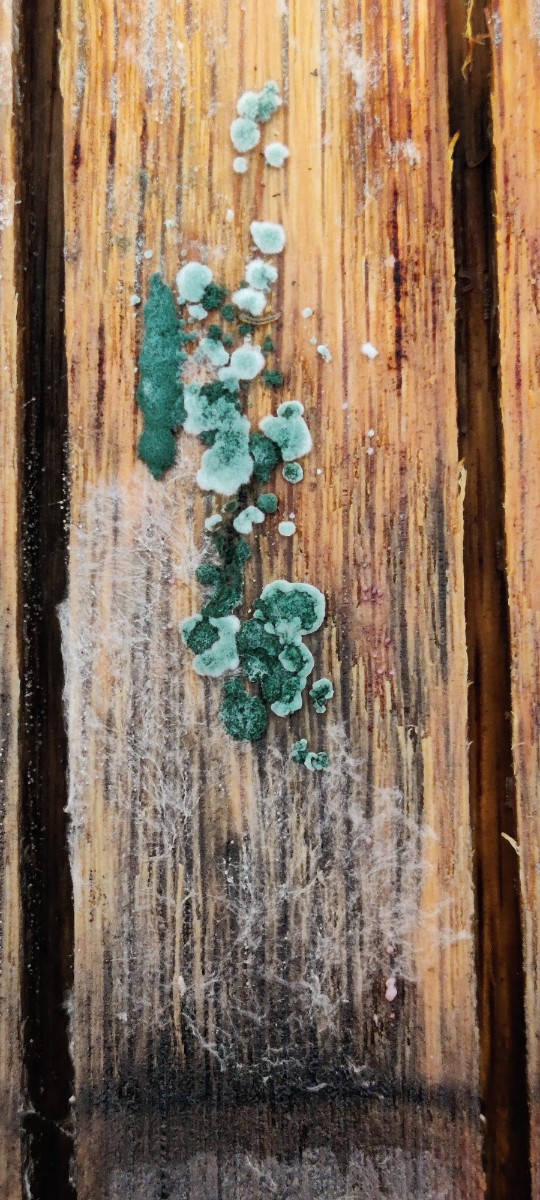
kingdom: Fungi
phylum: Ascomycota
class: Sordariomycetes
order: Hypocreales
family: Hypocreaceae
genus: Trichoderma
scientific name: Trichoderma
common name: kødkerne
